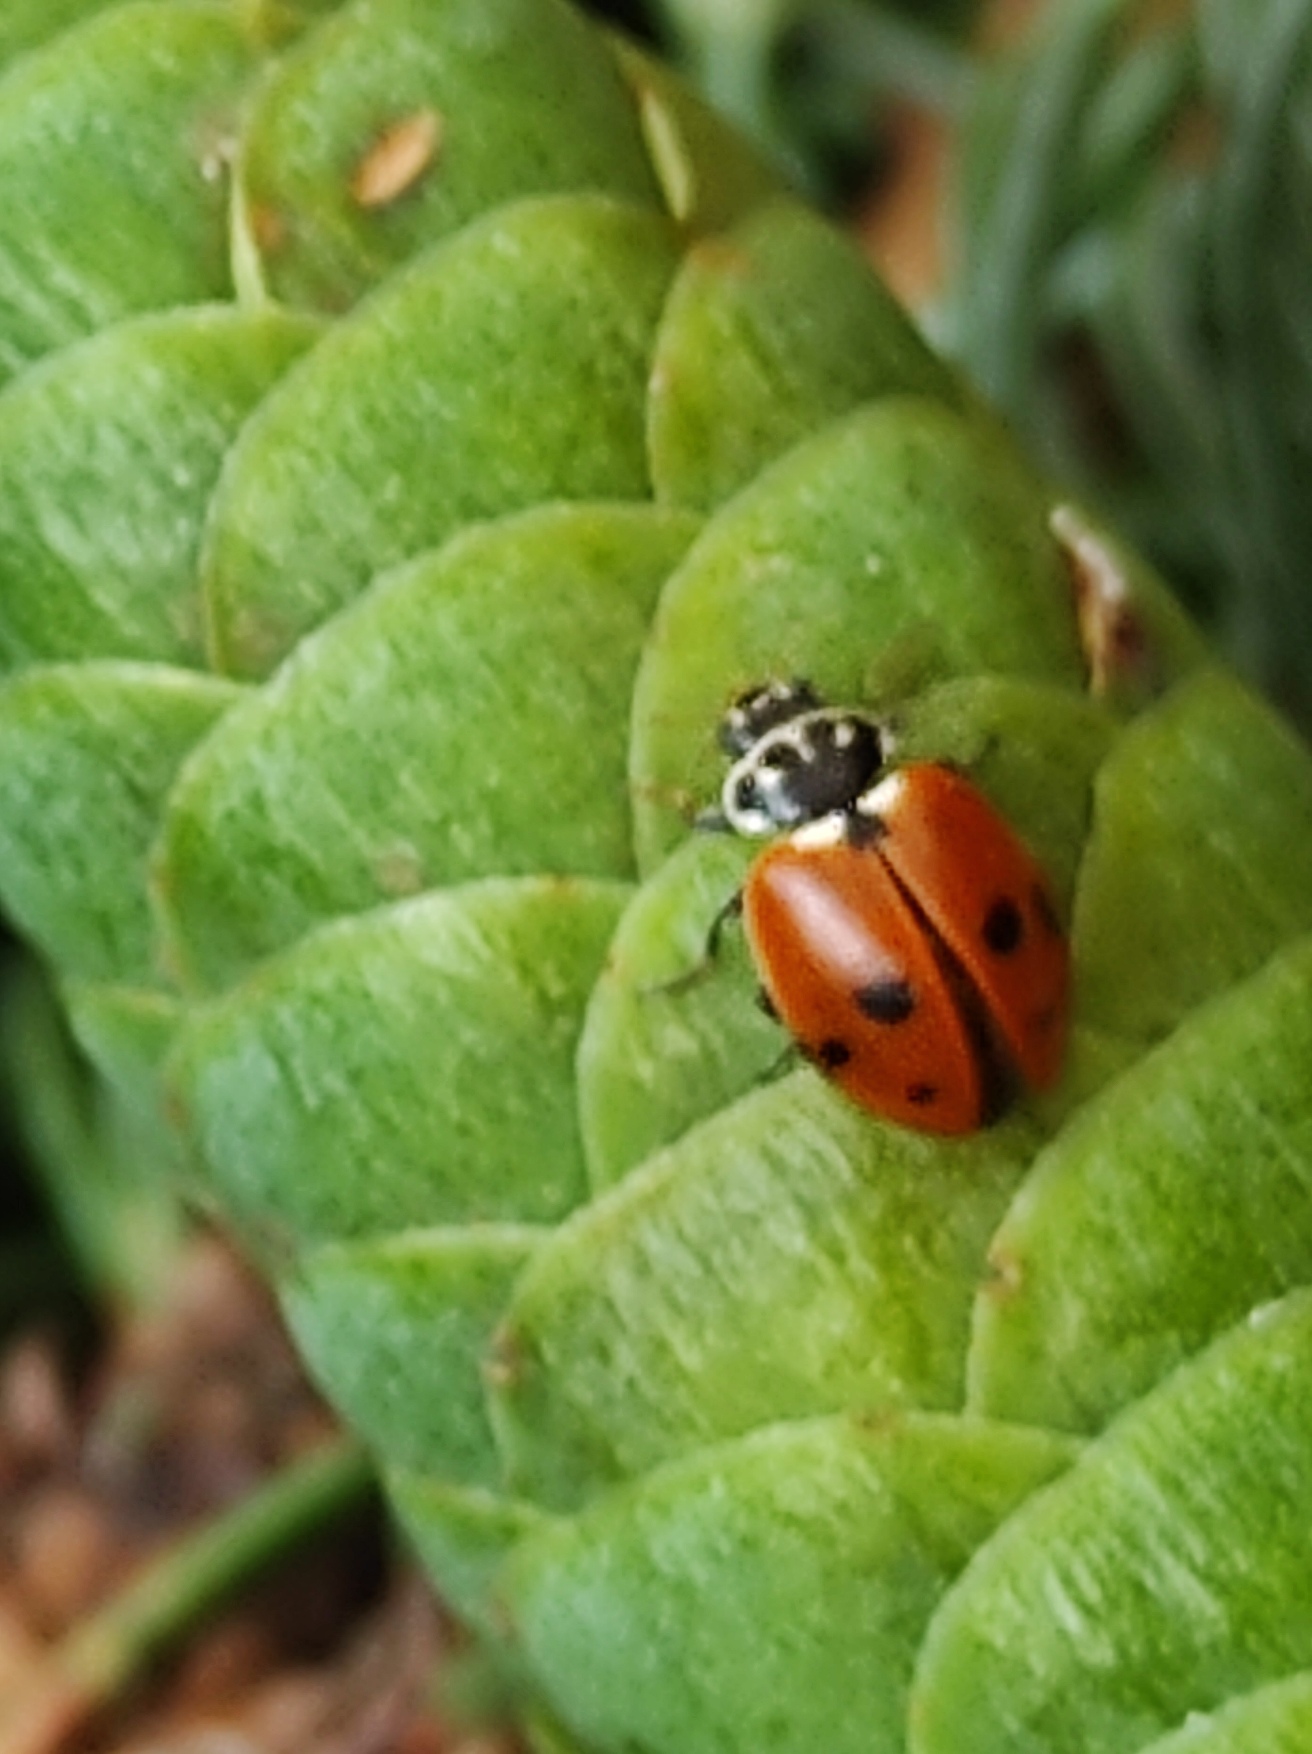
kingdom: Animalia
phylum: Arthropoda
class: Insecta
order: Coleoptera
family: Coccinellidae
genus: Hippodamia
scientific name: Hippodamia variegata
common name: Adonis' mariehøne
